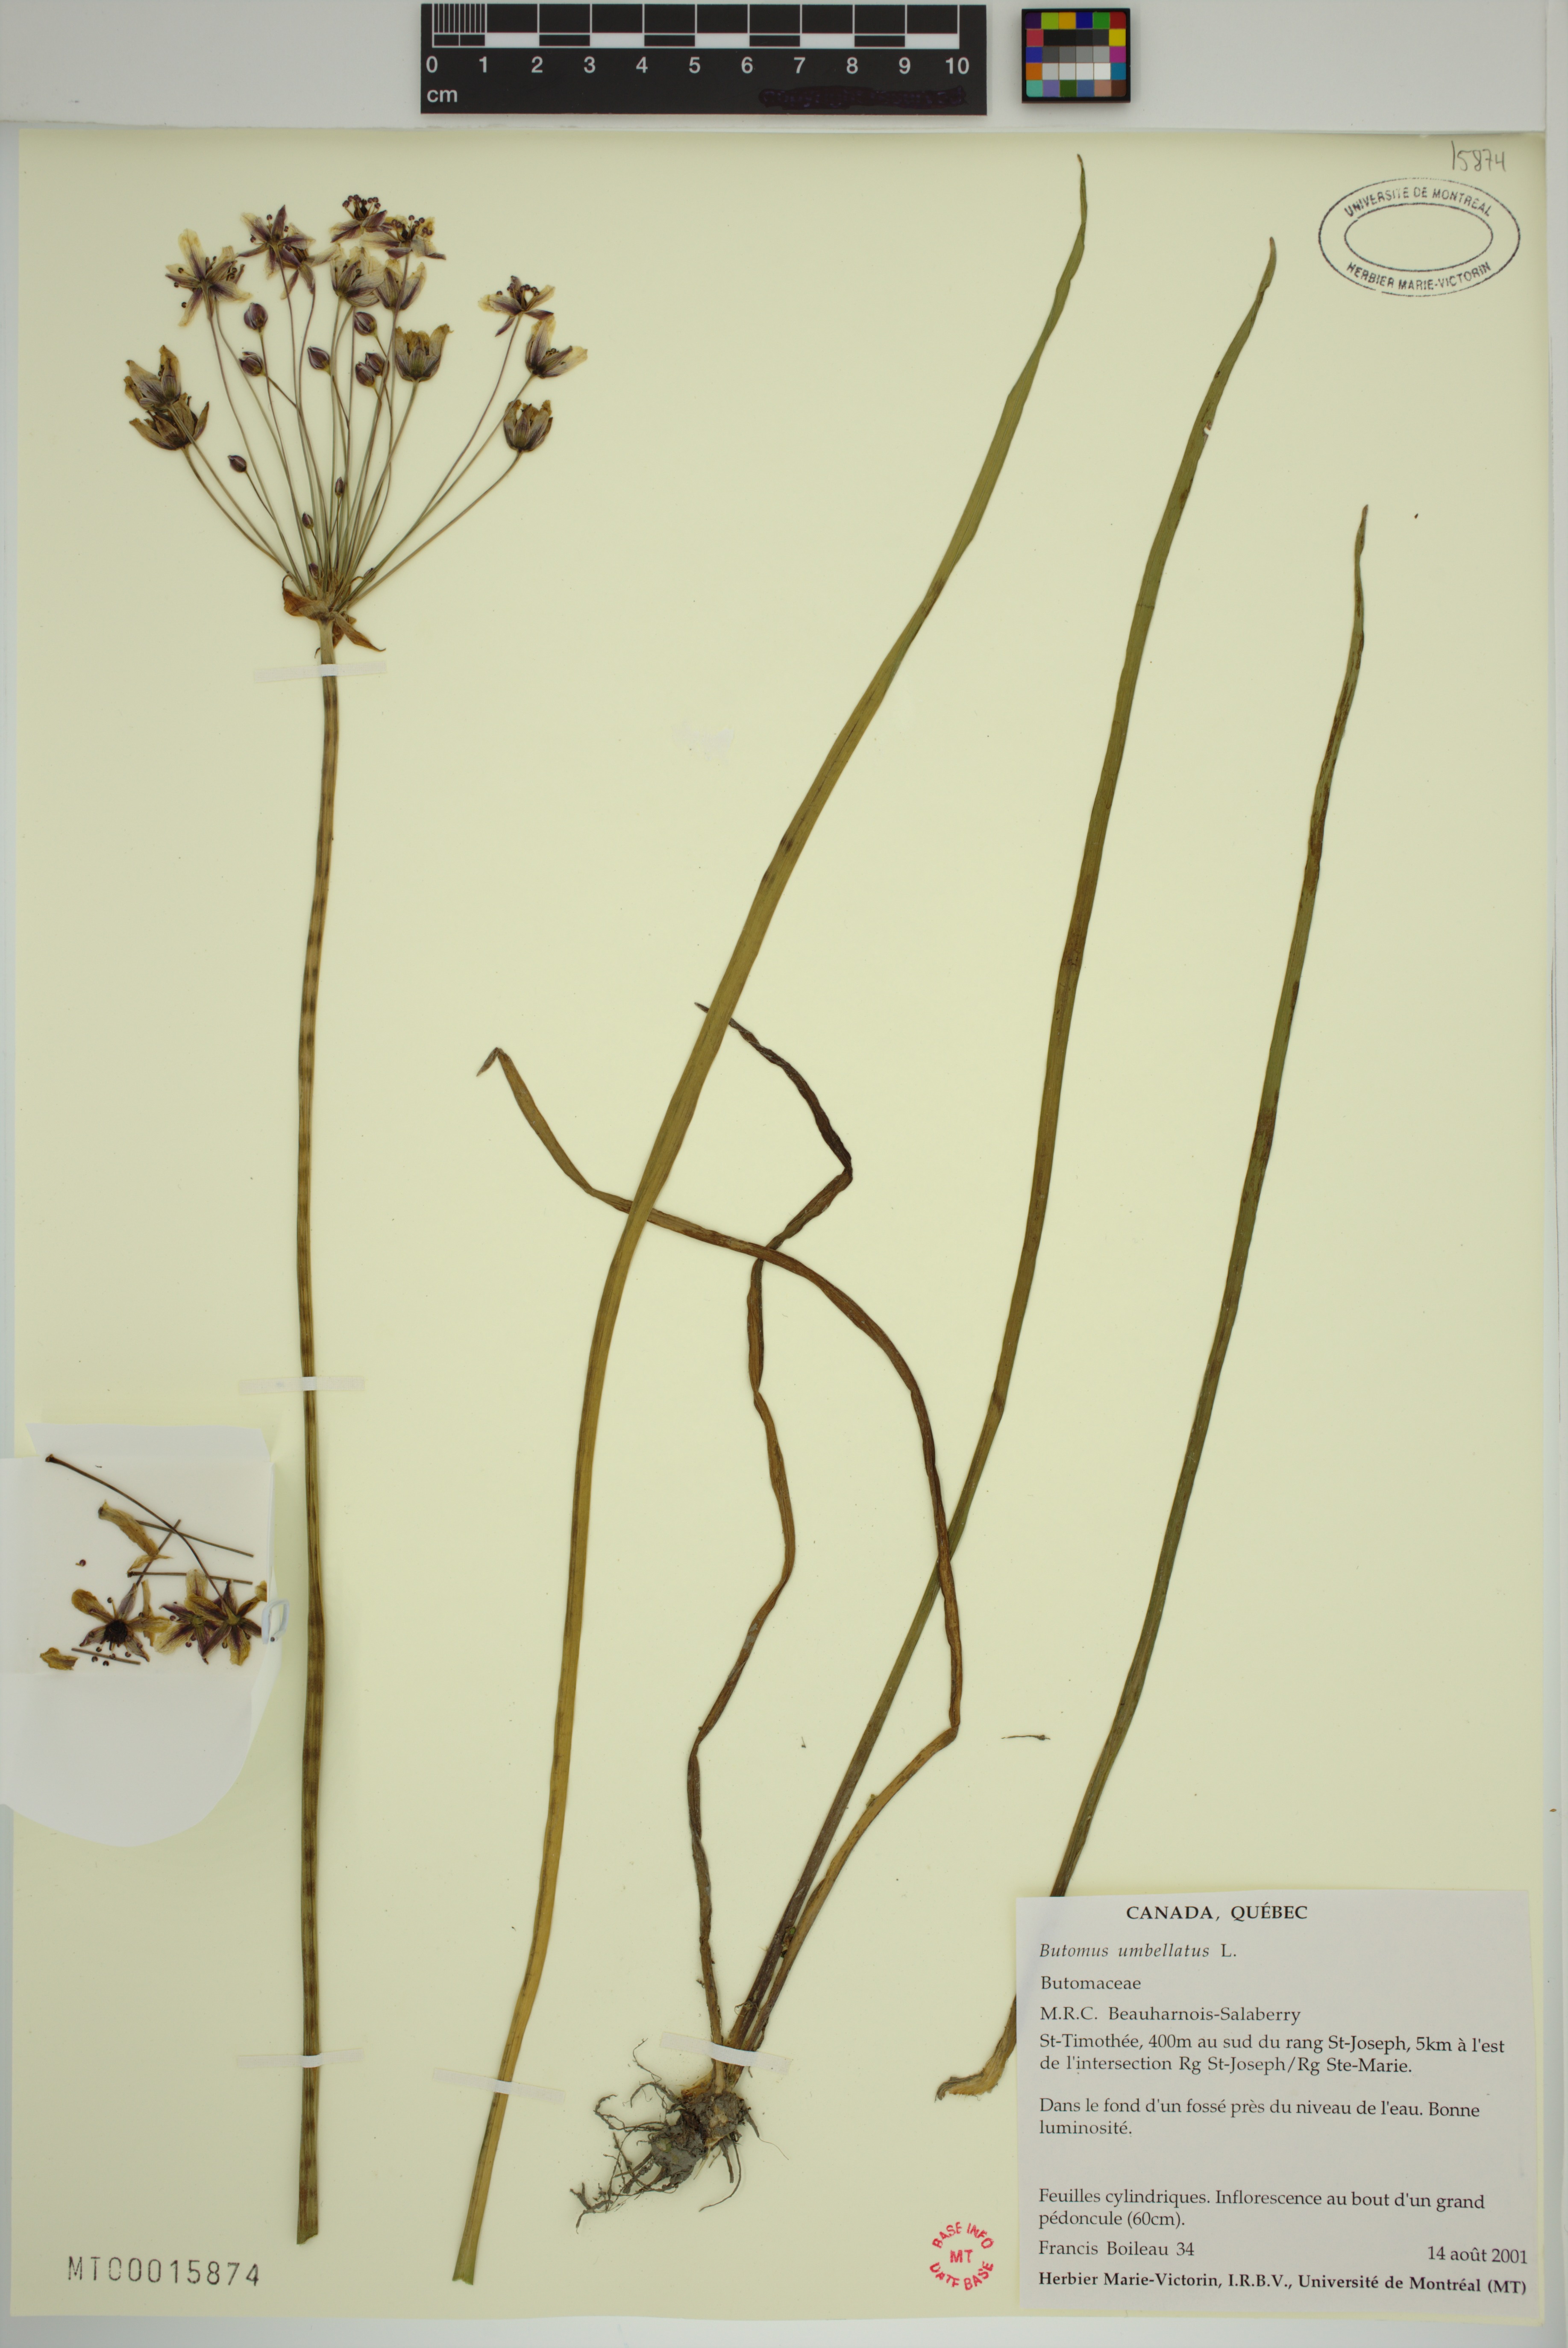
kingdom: Plantae
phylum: Tracheophyta
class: Liliopsida
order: Alismatales
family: Butomaceae
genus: Butomus
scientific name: Butomus umbellatus
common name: Flowering-rush
